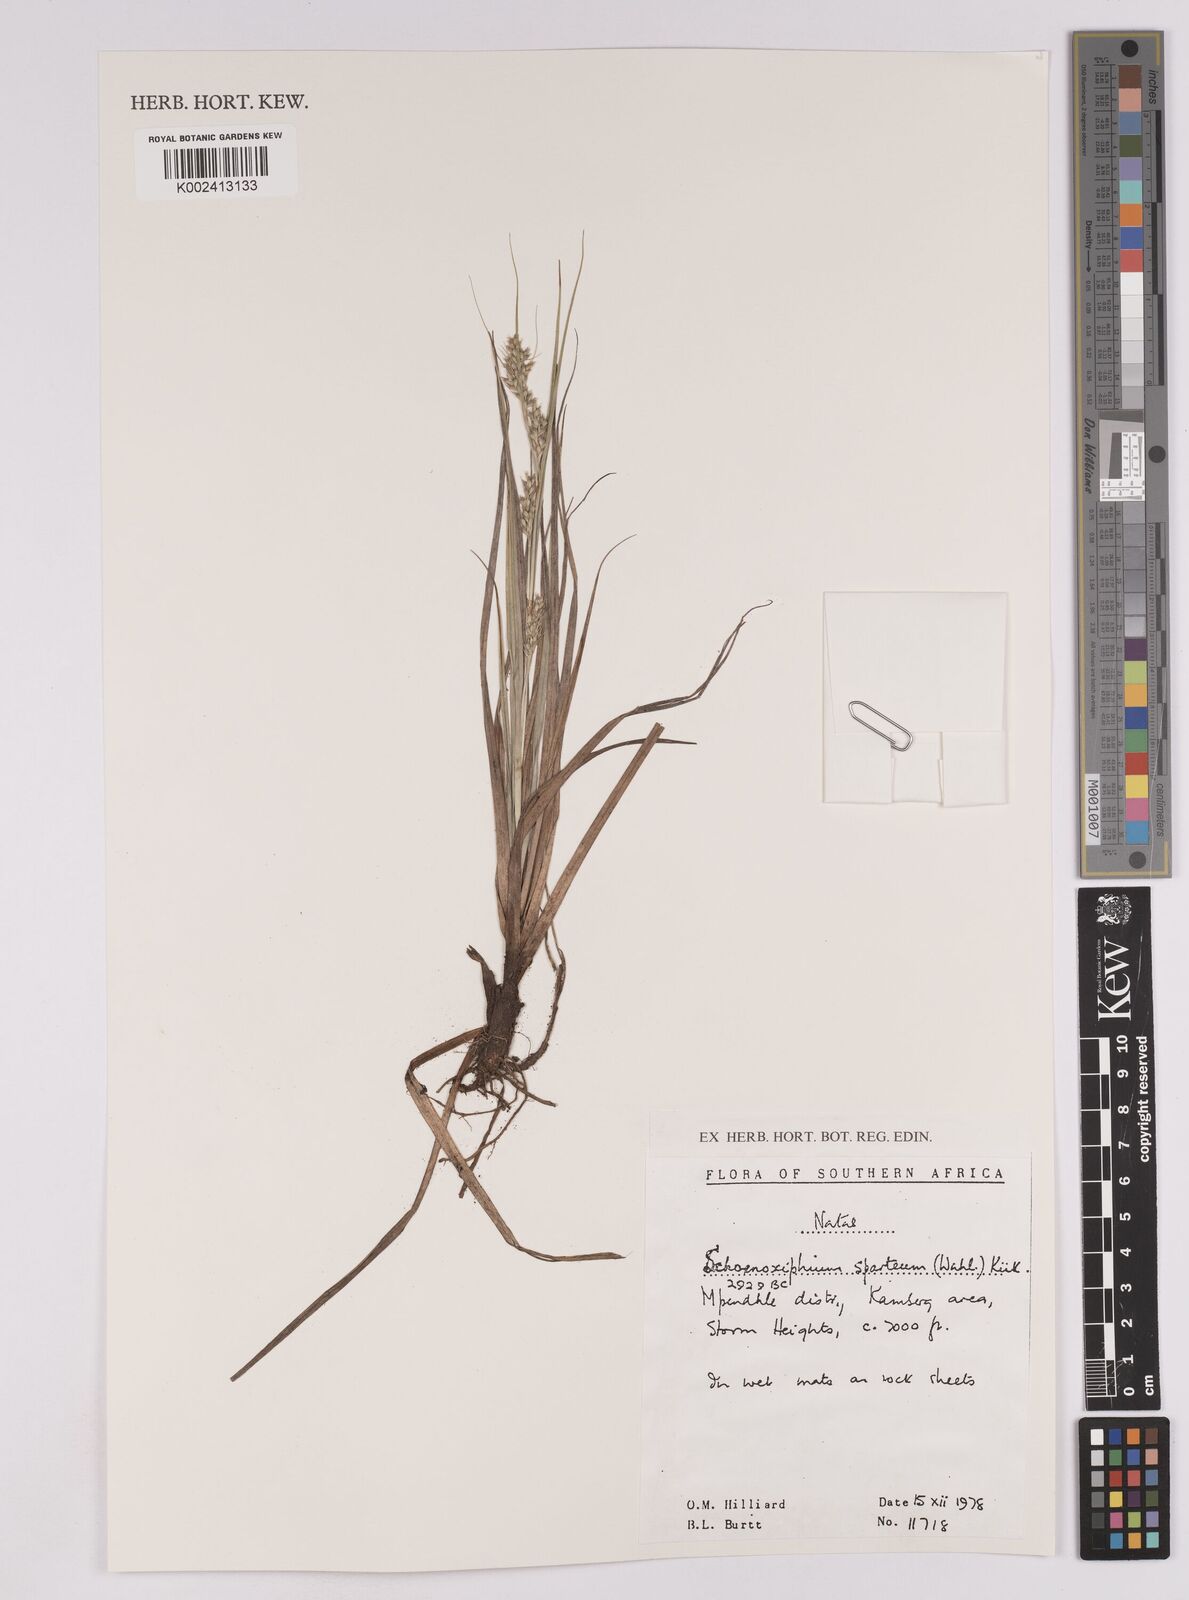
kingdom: Plantae
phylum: Tracheophyta
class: Liliopsida
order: Poales
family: Cyperaceae
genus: Carex
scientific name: Carex spartea
